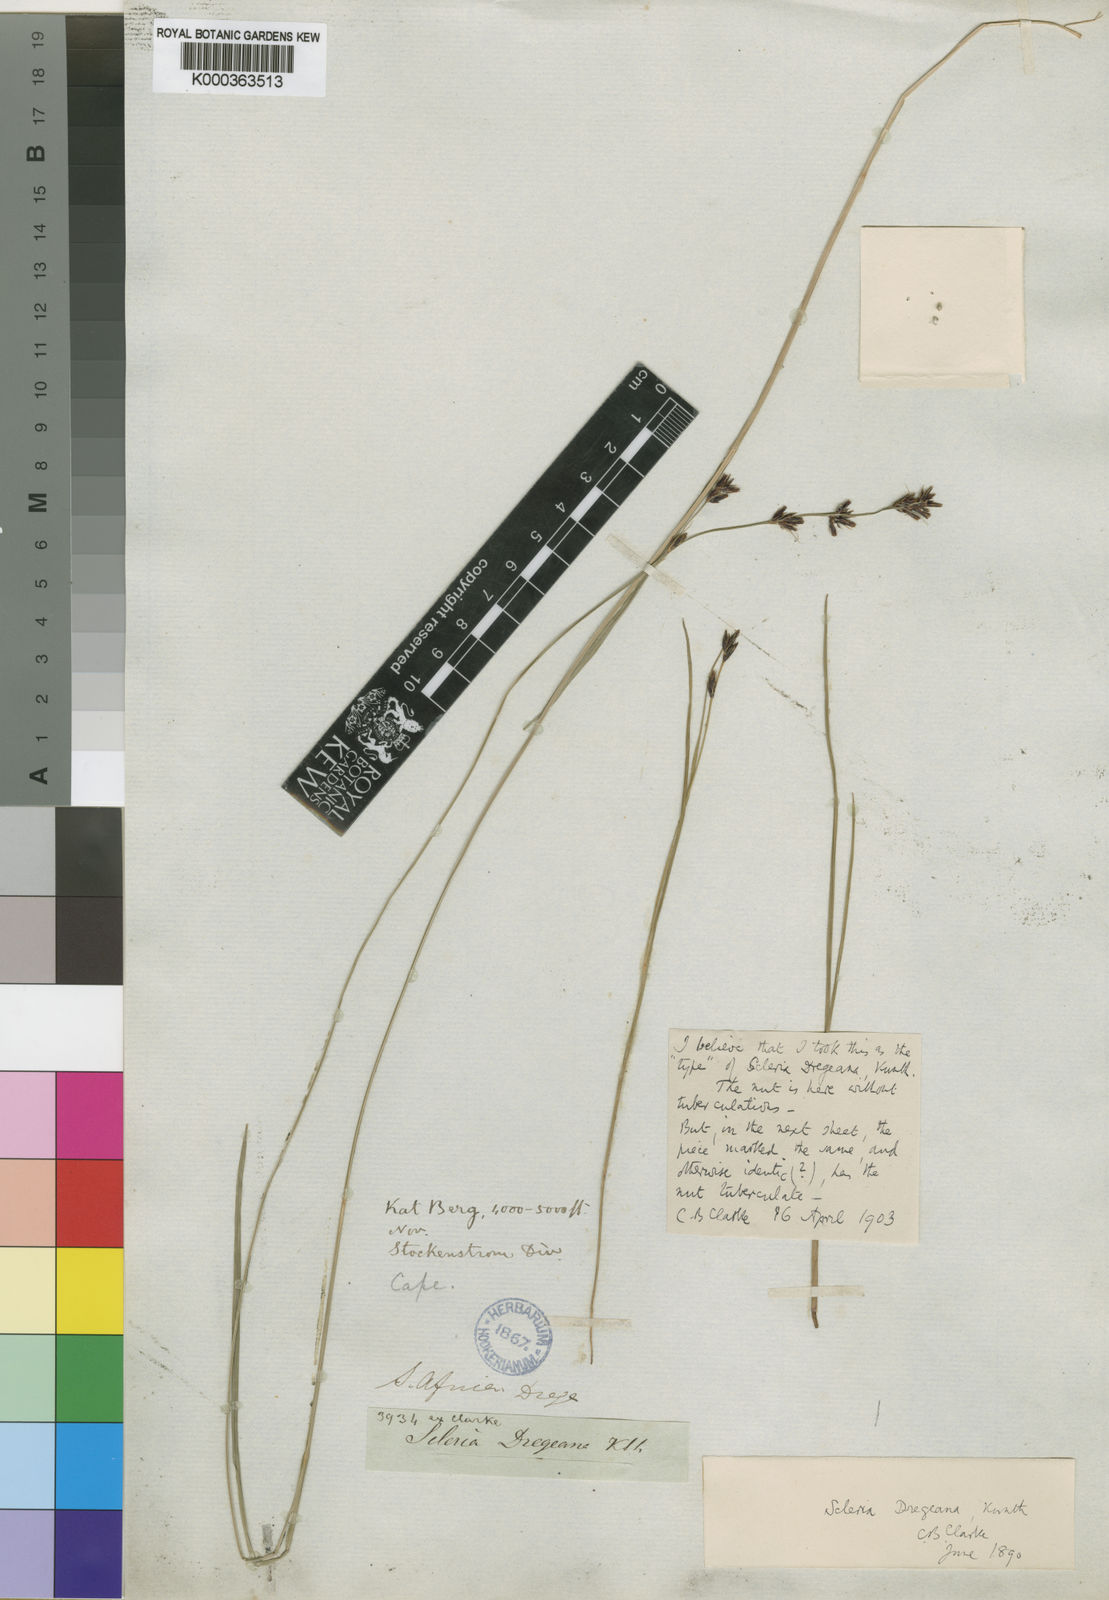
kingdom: Plantae
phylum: Tracheophyta
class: Liliopsida
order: Poales
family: Cyperaceae
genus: Scleria
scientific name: Scleria dregeana
